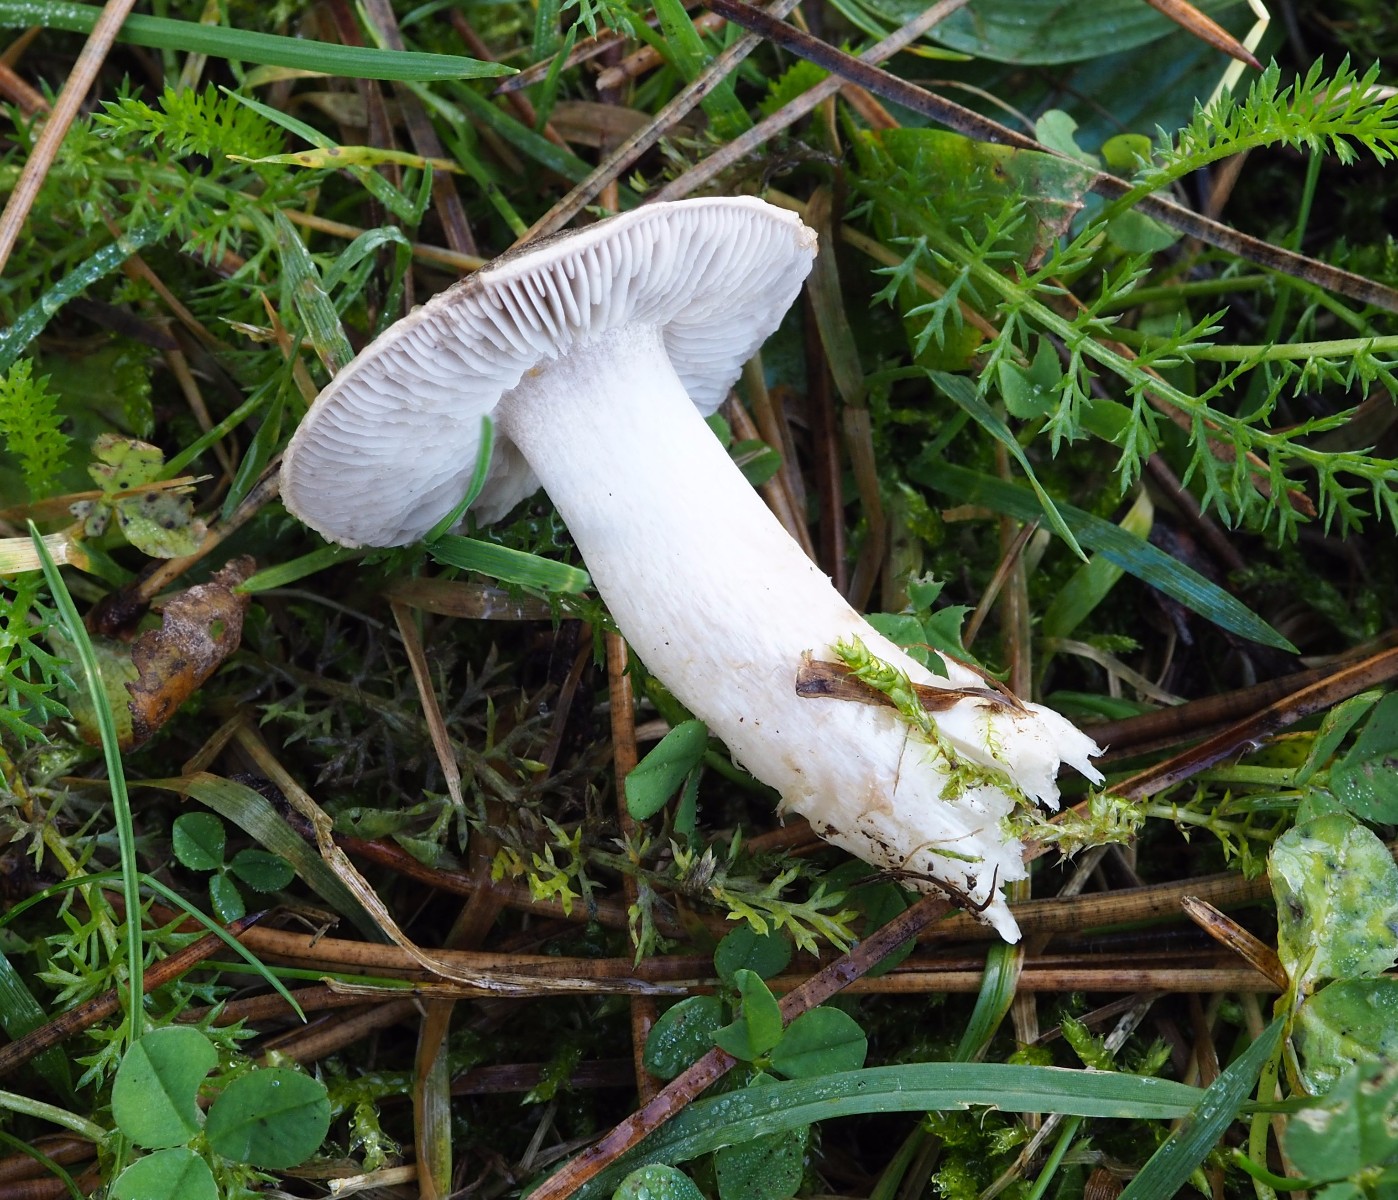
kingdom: Fungi
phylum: Basidiomycota
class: Agaricomycetes
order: Agaricales
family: Tricholomataceae
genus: Tricholoma
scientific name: Tricholoma terreum
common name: jordfarvet ridderhat
